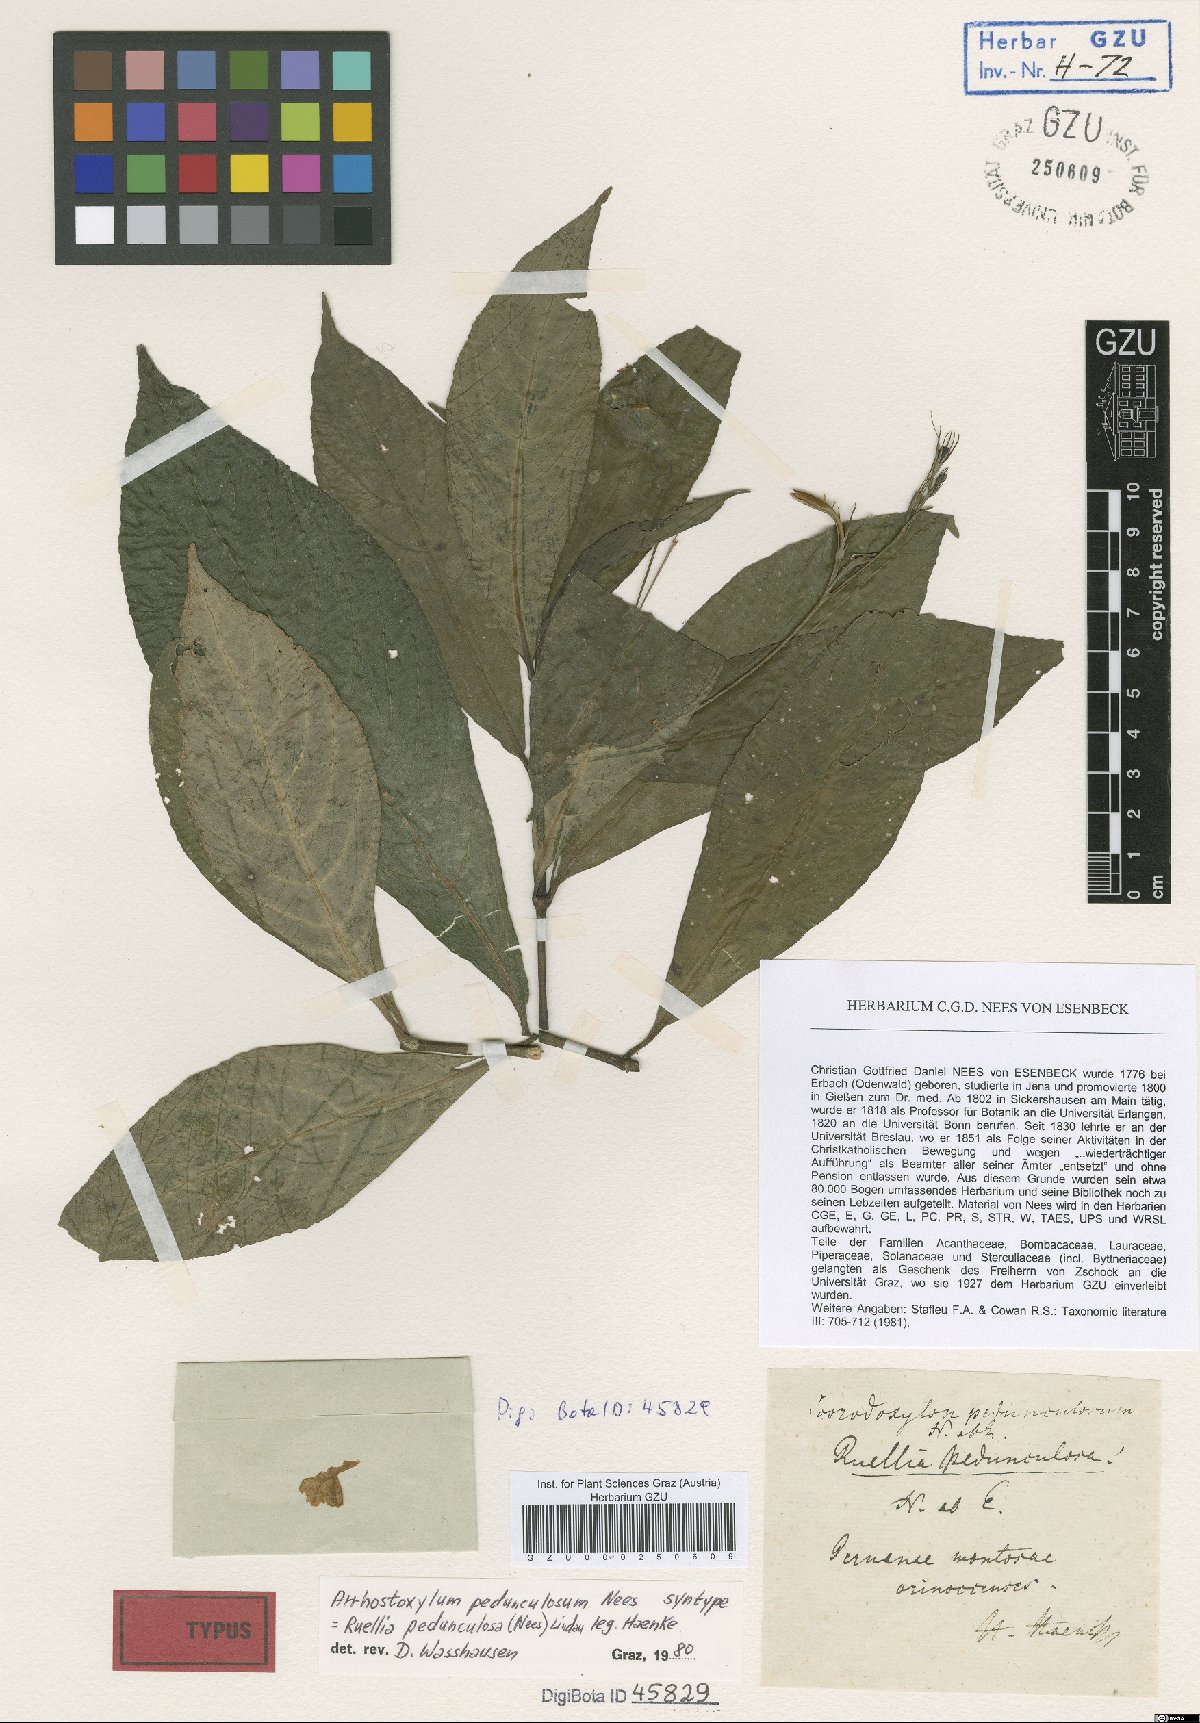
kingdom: Plantae
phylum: Tracheophyta
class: Magnoliopsida
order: Lamiales
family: Acanthaceae
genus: Ruellia
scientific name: Ruellia pedunculosa
